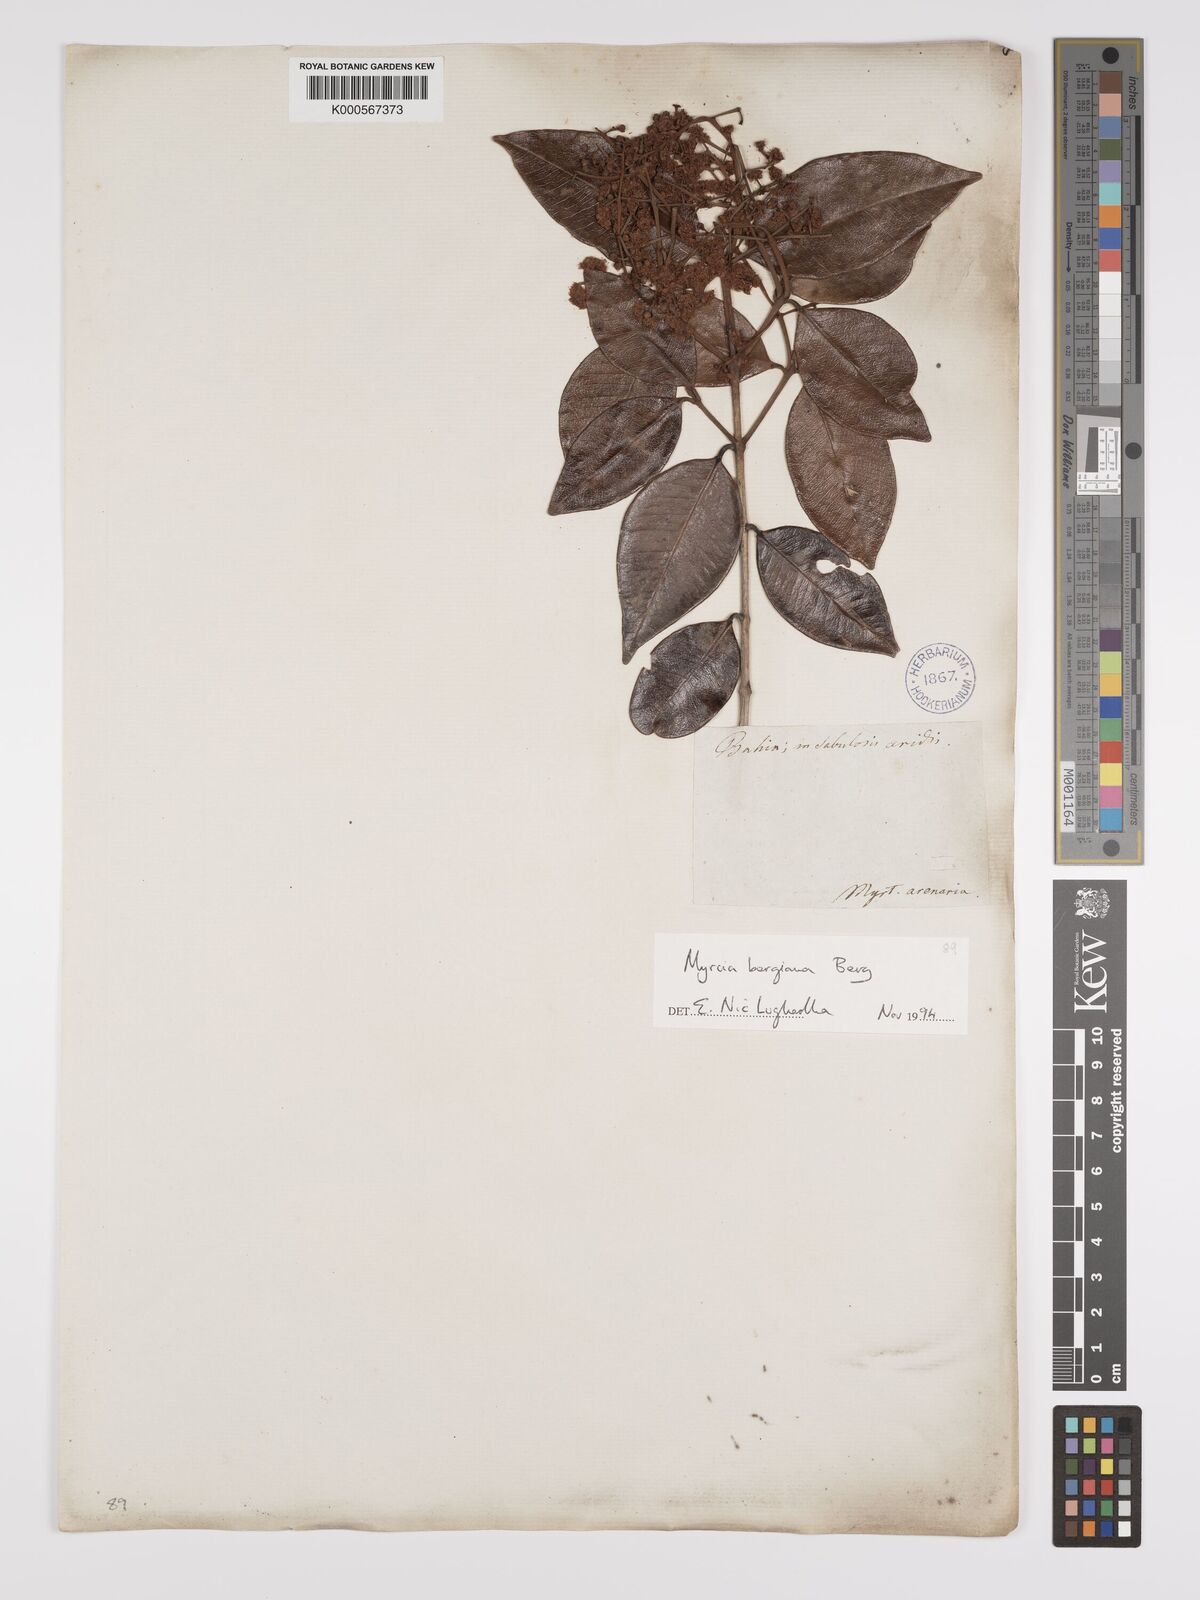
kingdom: Plantae
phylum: Tracheophyta
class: Magnoliopsida
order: Myrtales
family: Myrtaceae
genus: Myrcia
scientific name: Myrcia bergiana
